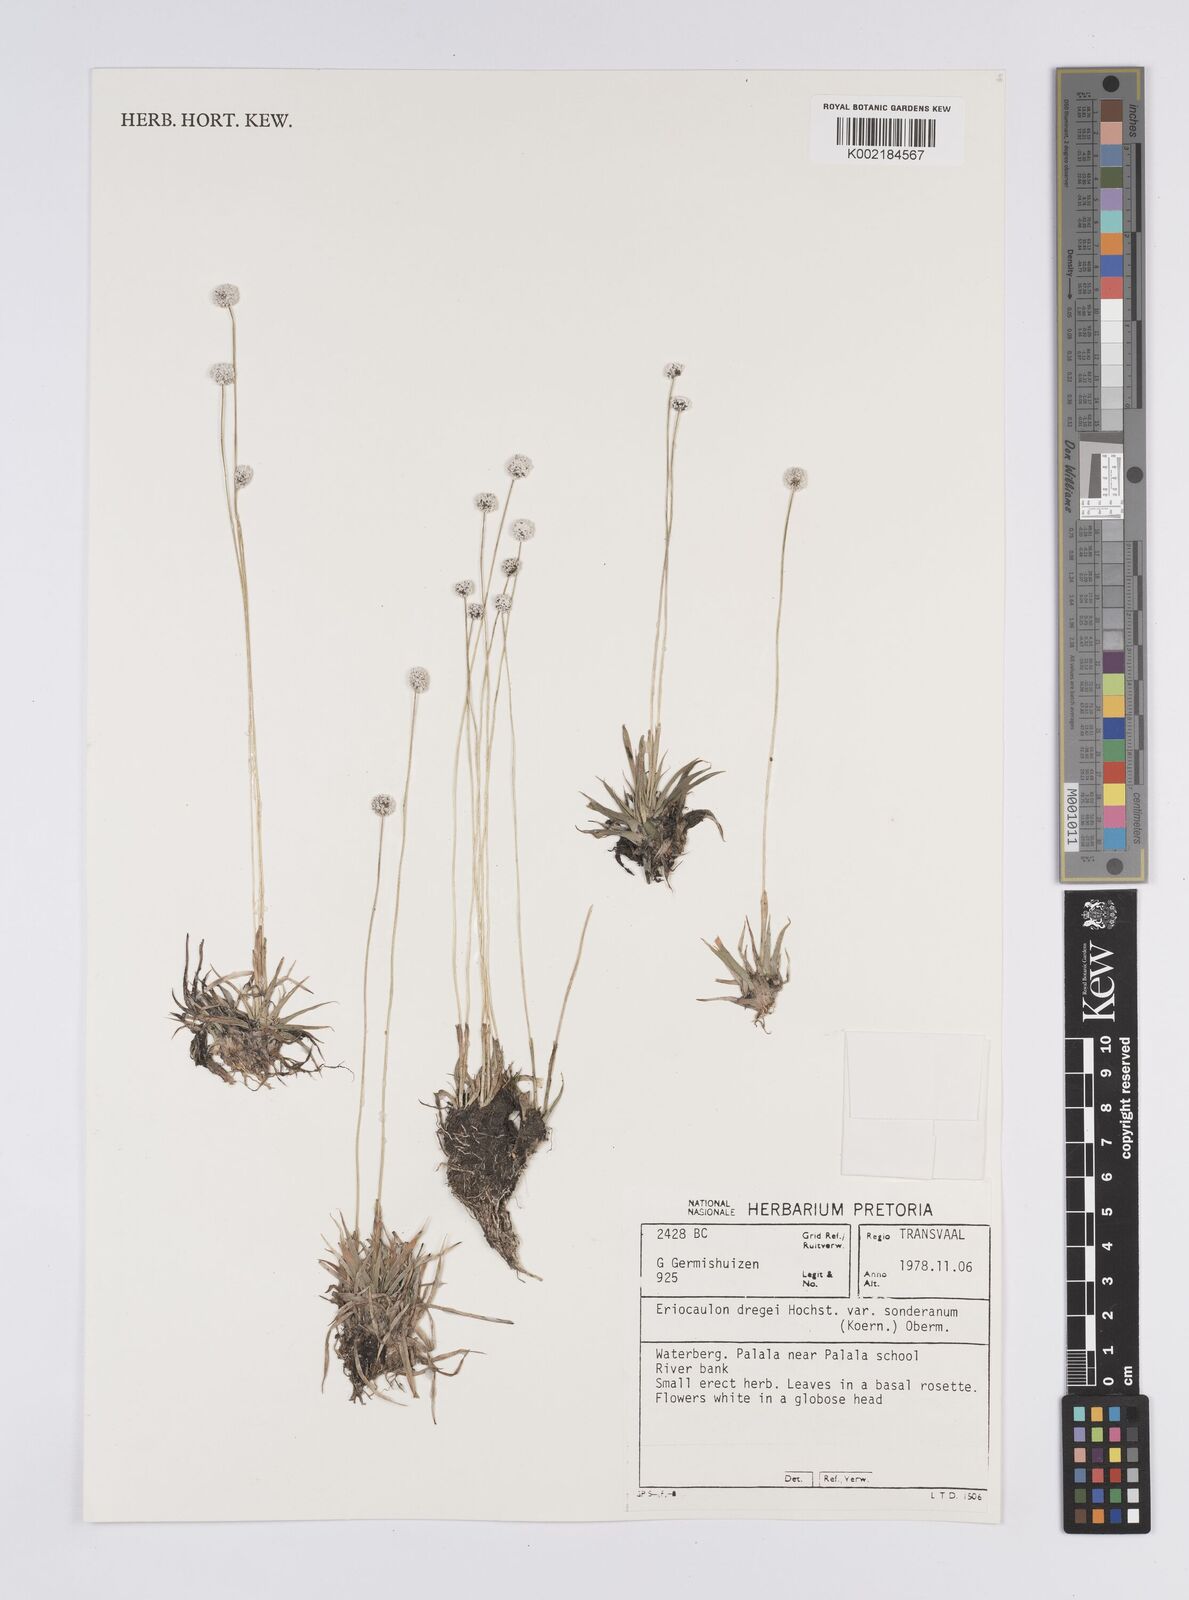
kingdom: Plantae
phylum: Tracheophyta
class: Liliopsida
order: Poales
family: Eriocaulaceae
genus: Eriocaulon
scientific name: Eriocaulon sonderianum
